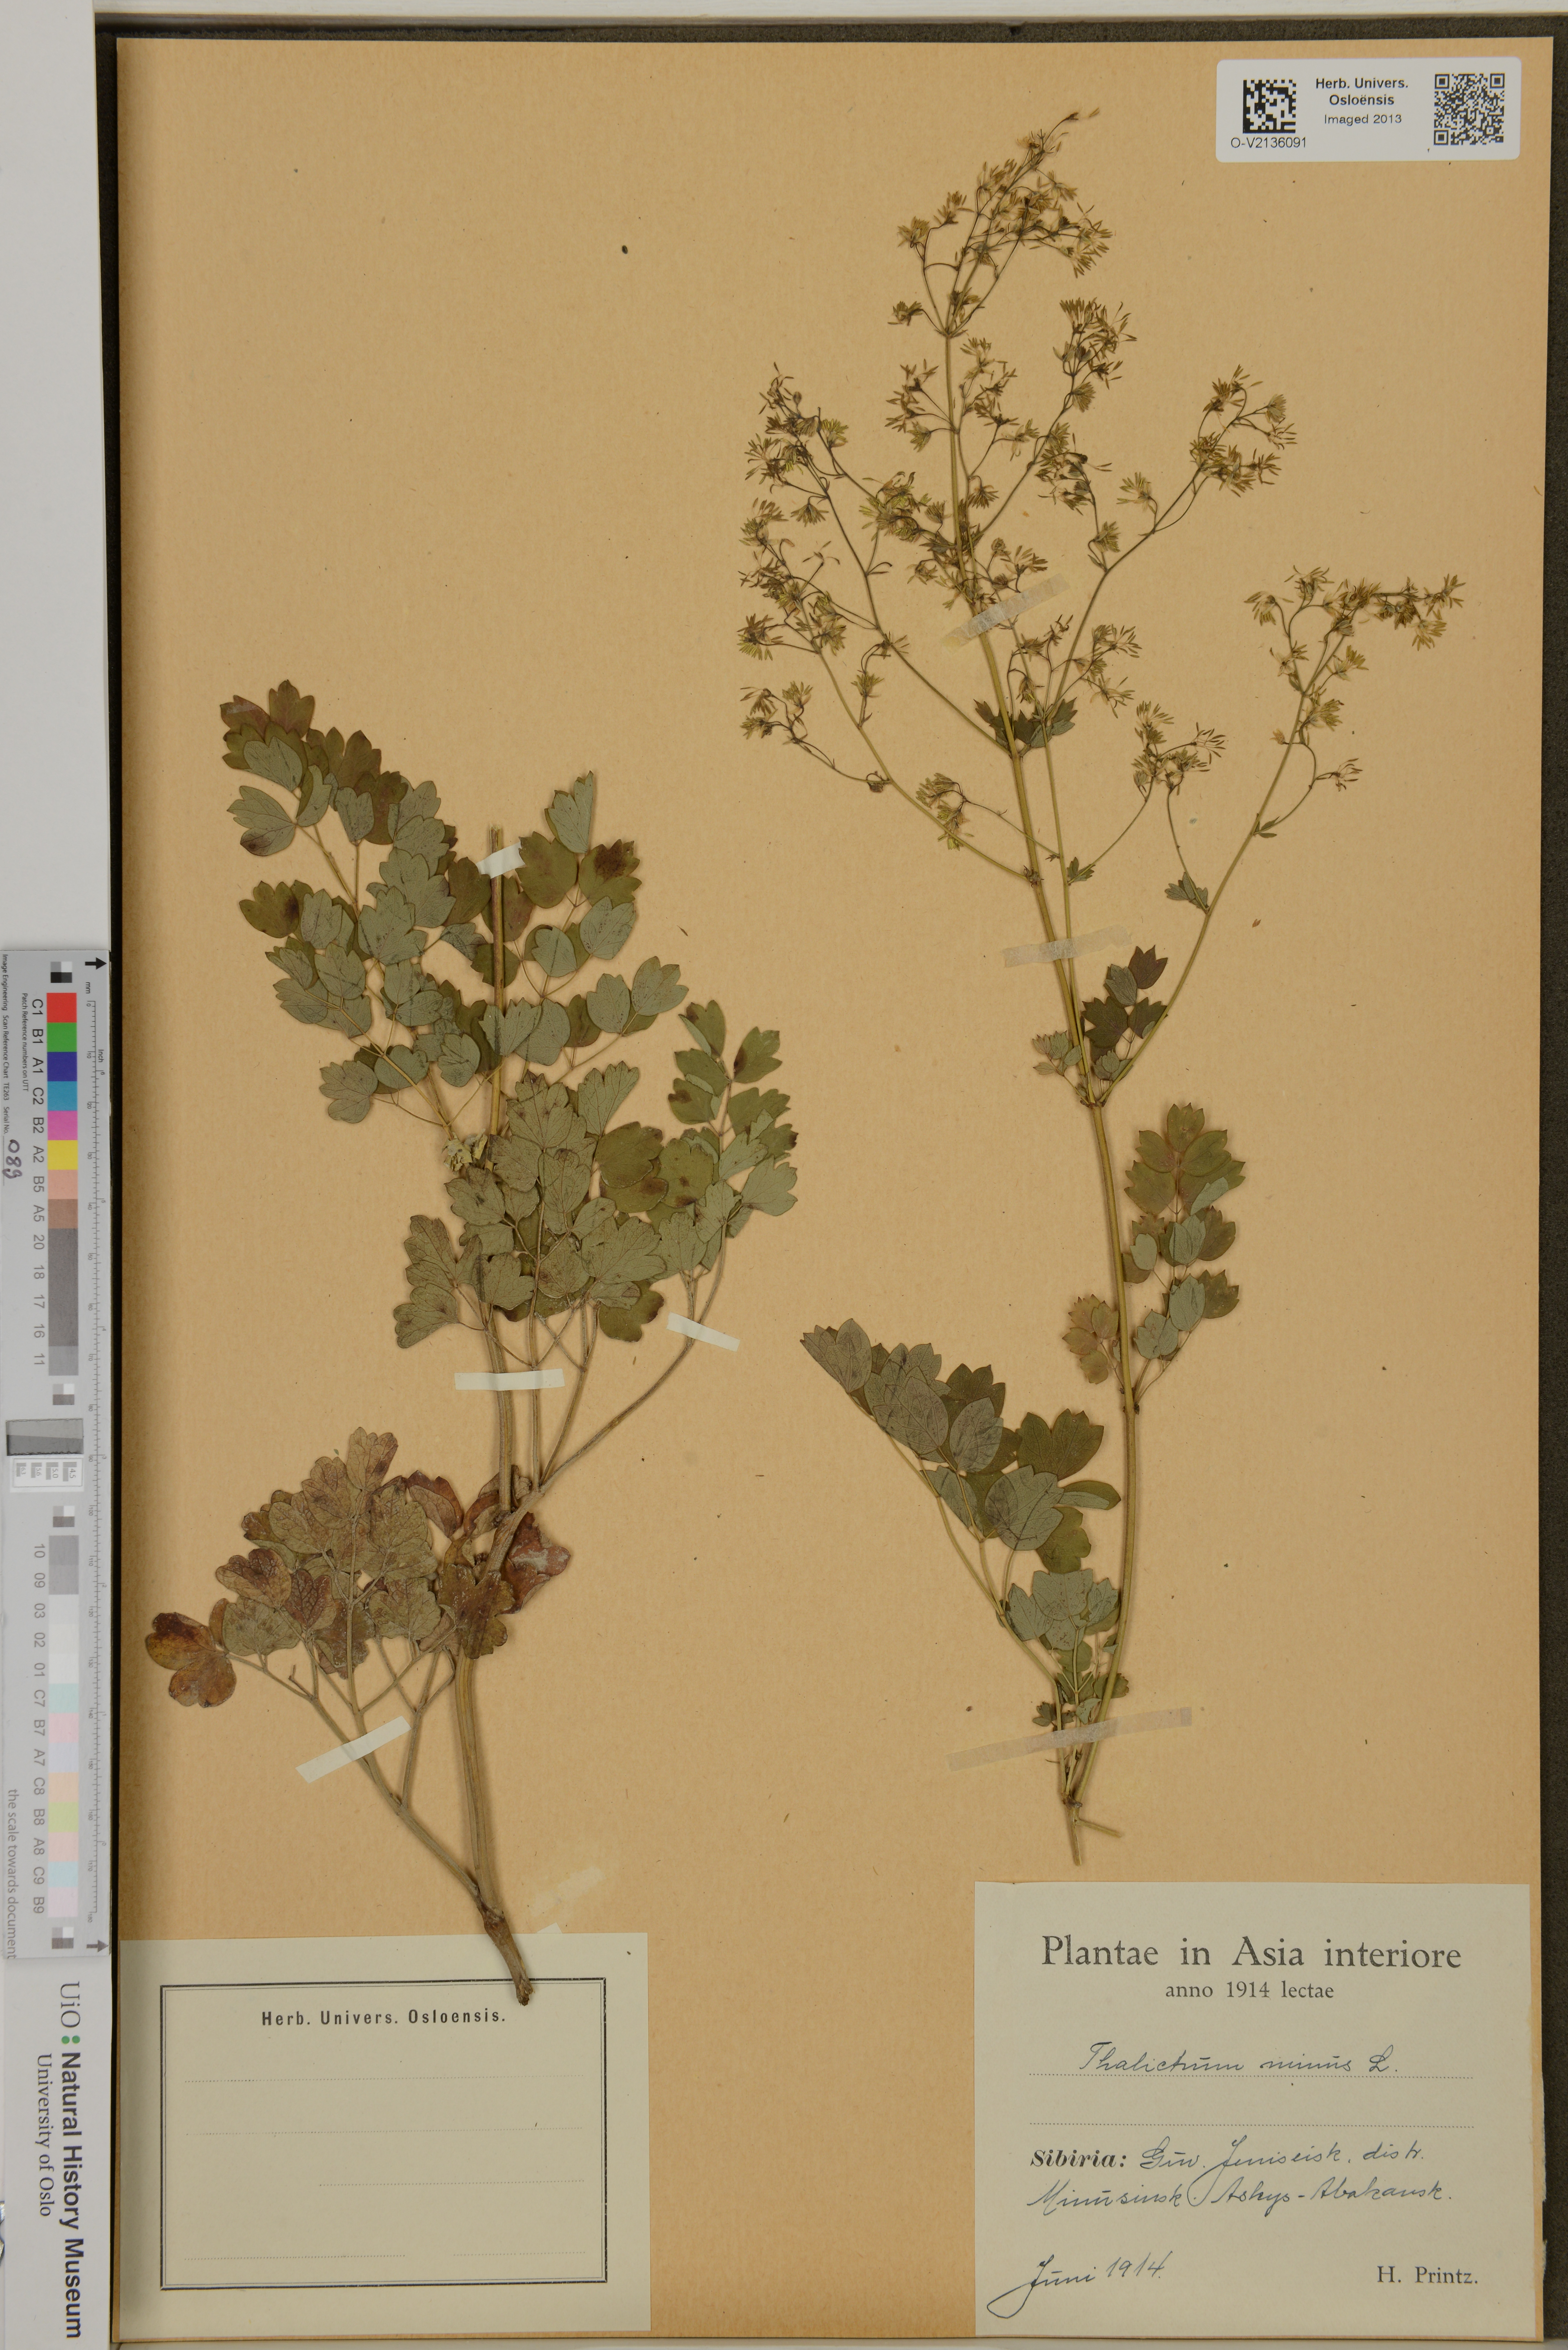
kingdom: Plantae
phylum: Tracheophyta
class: Magnoliopsida
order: Ranunculales
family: Ranunculaceae
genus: Thalictrum
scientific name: Thalictrum minus
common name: Lesser meadow-rue
